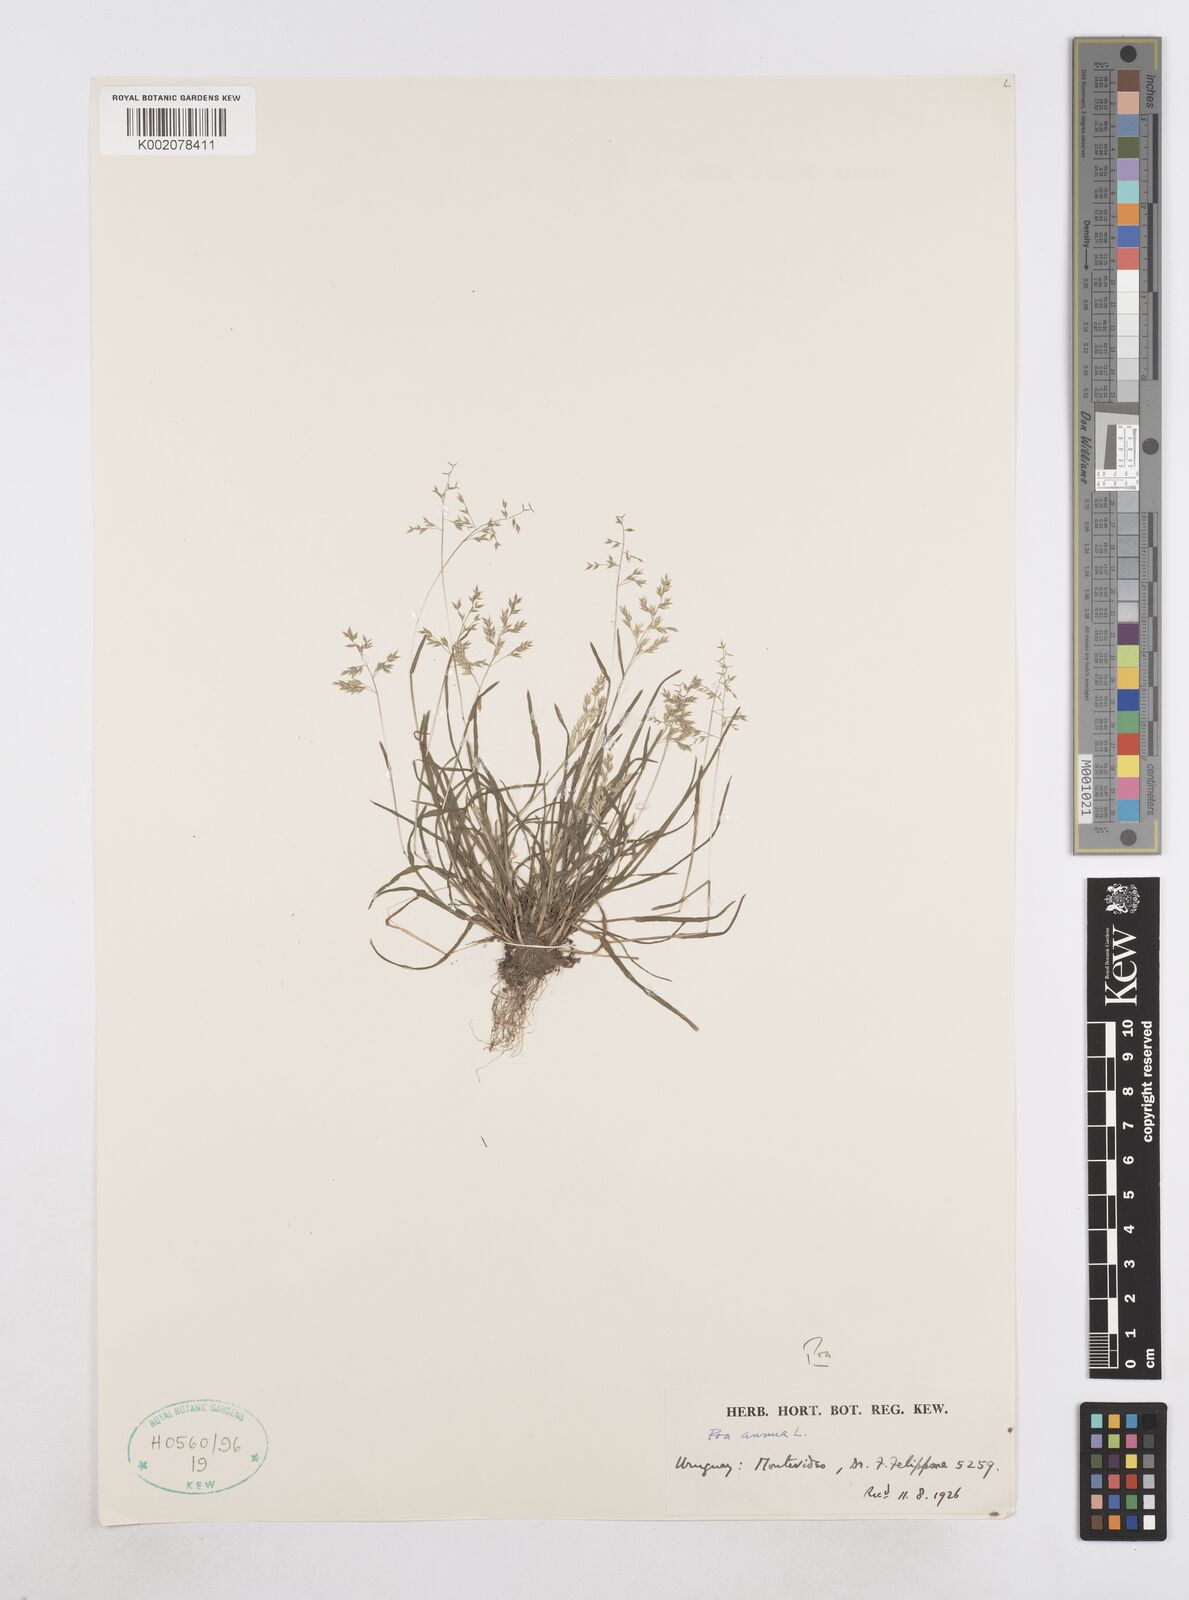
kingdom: Plantae
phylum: Tracheophyta
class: Liliopsida
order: Poales
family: Poaceae
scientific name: Poaceae
